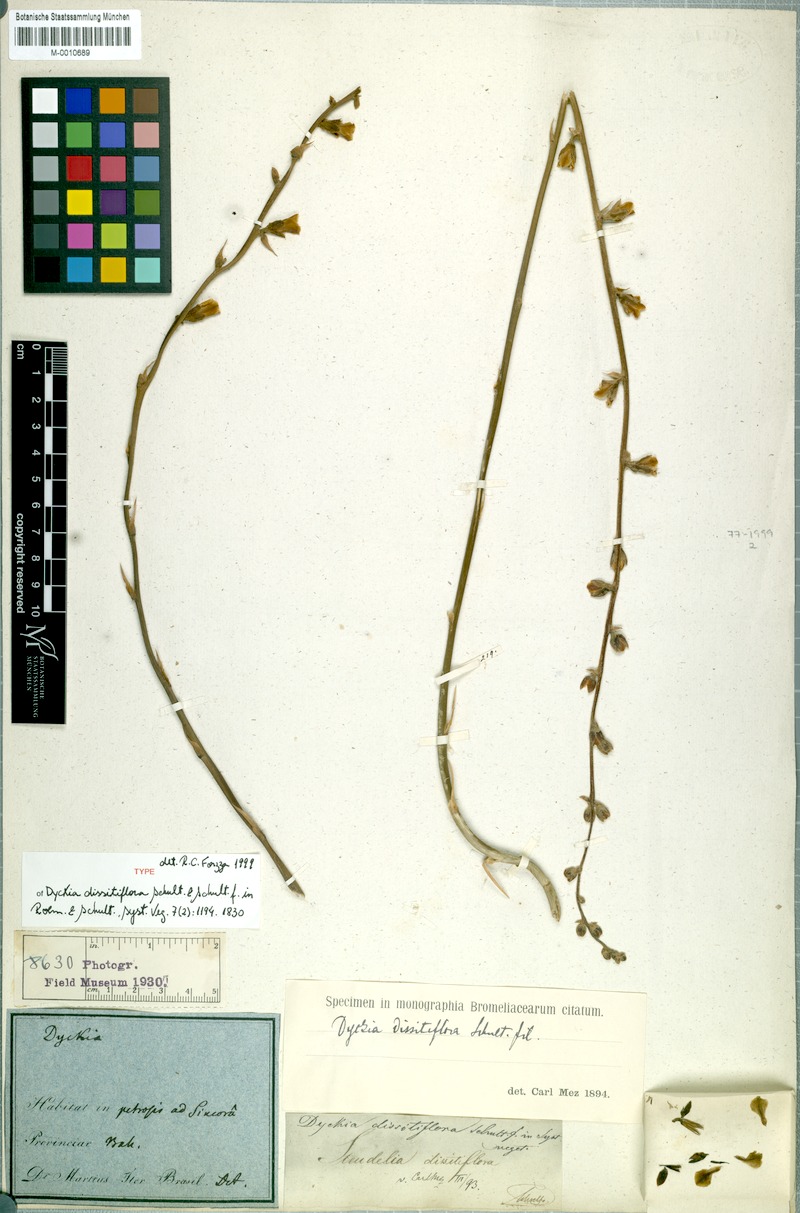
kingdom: Plantae
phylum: Tracheophyta
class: Liliopsida
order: Poales
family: Bromeliaceae
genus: Dyckia
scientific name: Dyckia dissitiflora
